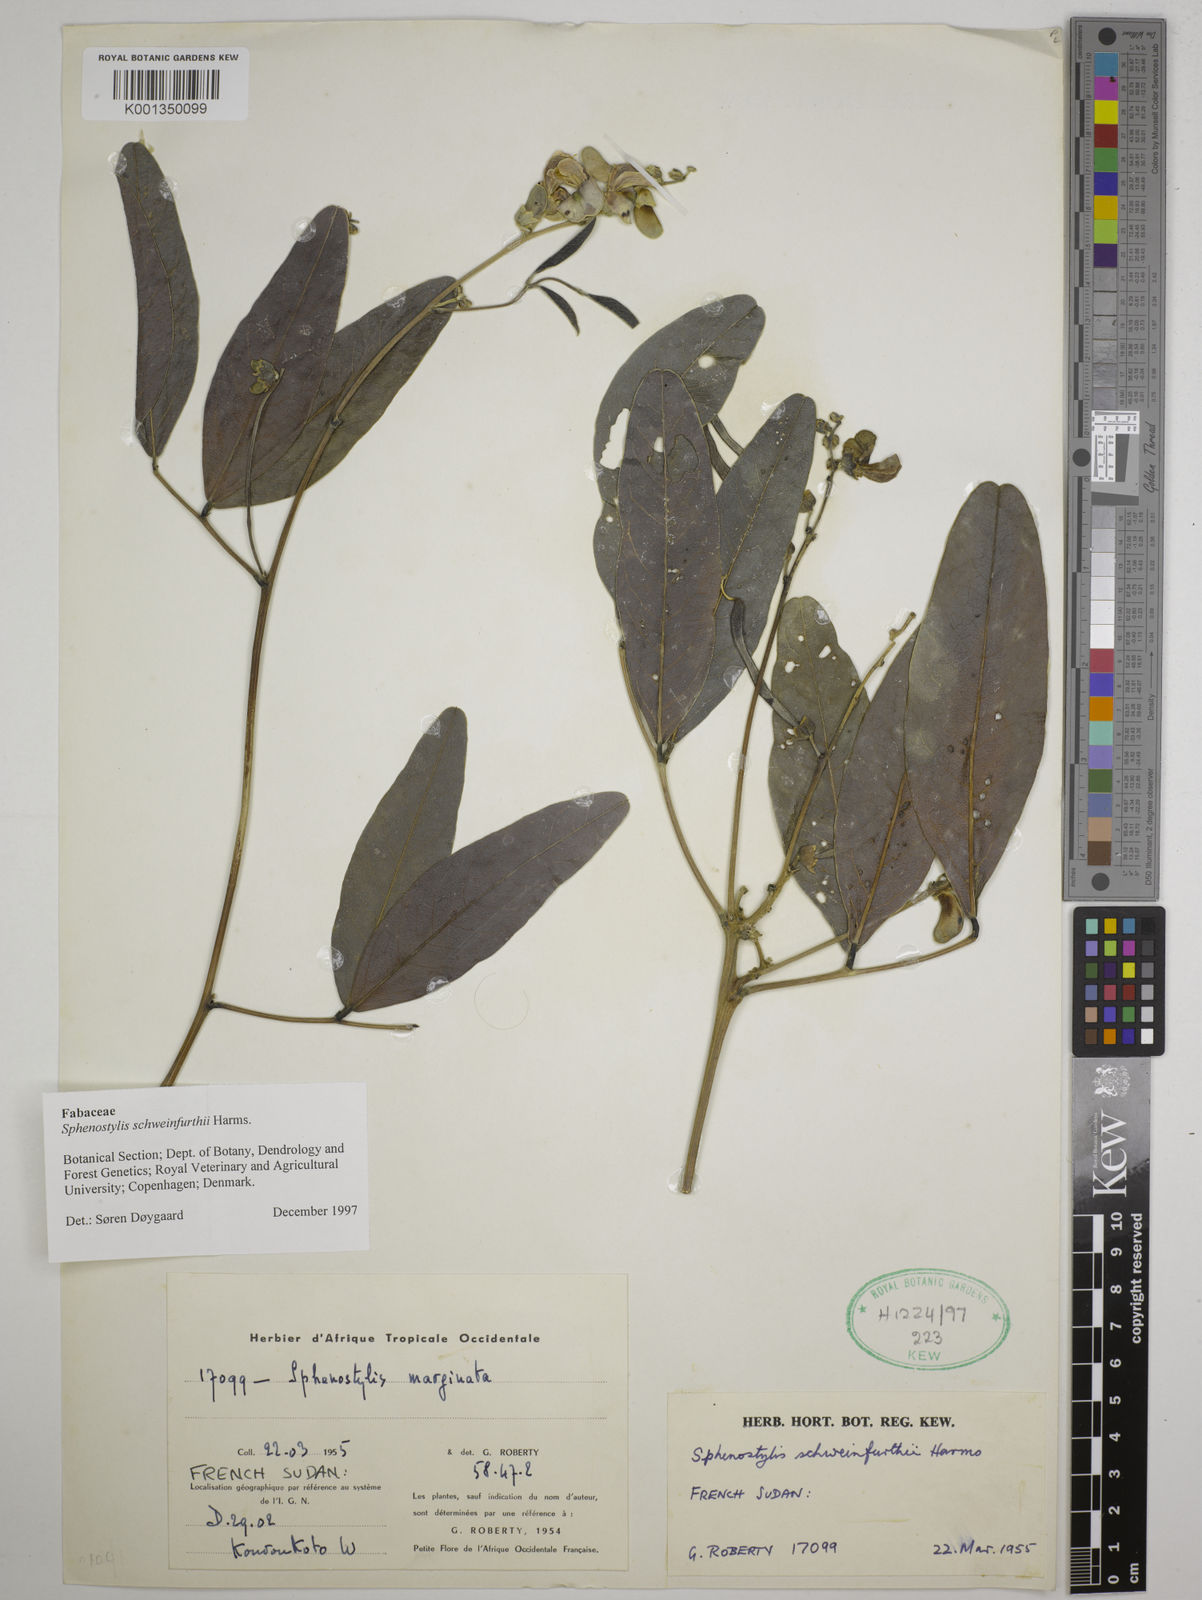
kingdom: Plantae
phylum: Tracheophyta
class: Magnoliopsida
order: Fabales
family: Fabaceae
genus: Sphenostylis
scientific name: Sphenostylis schweinfurthii
